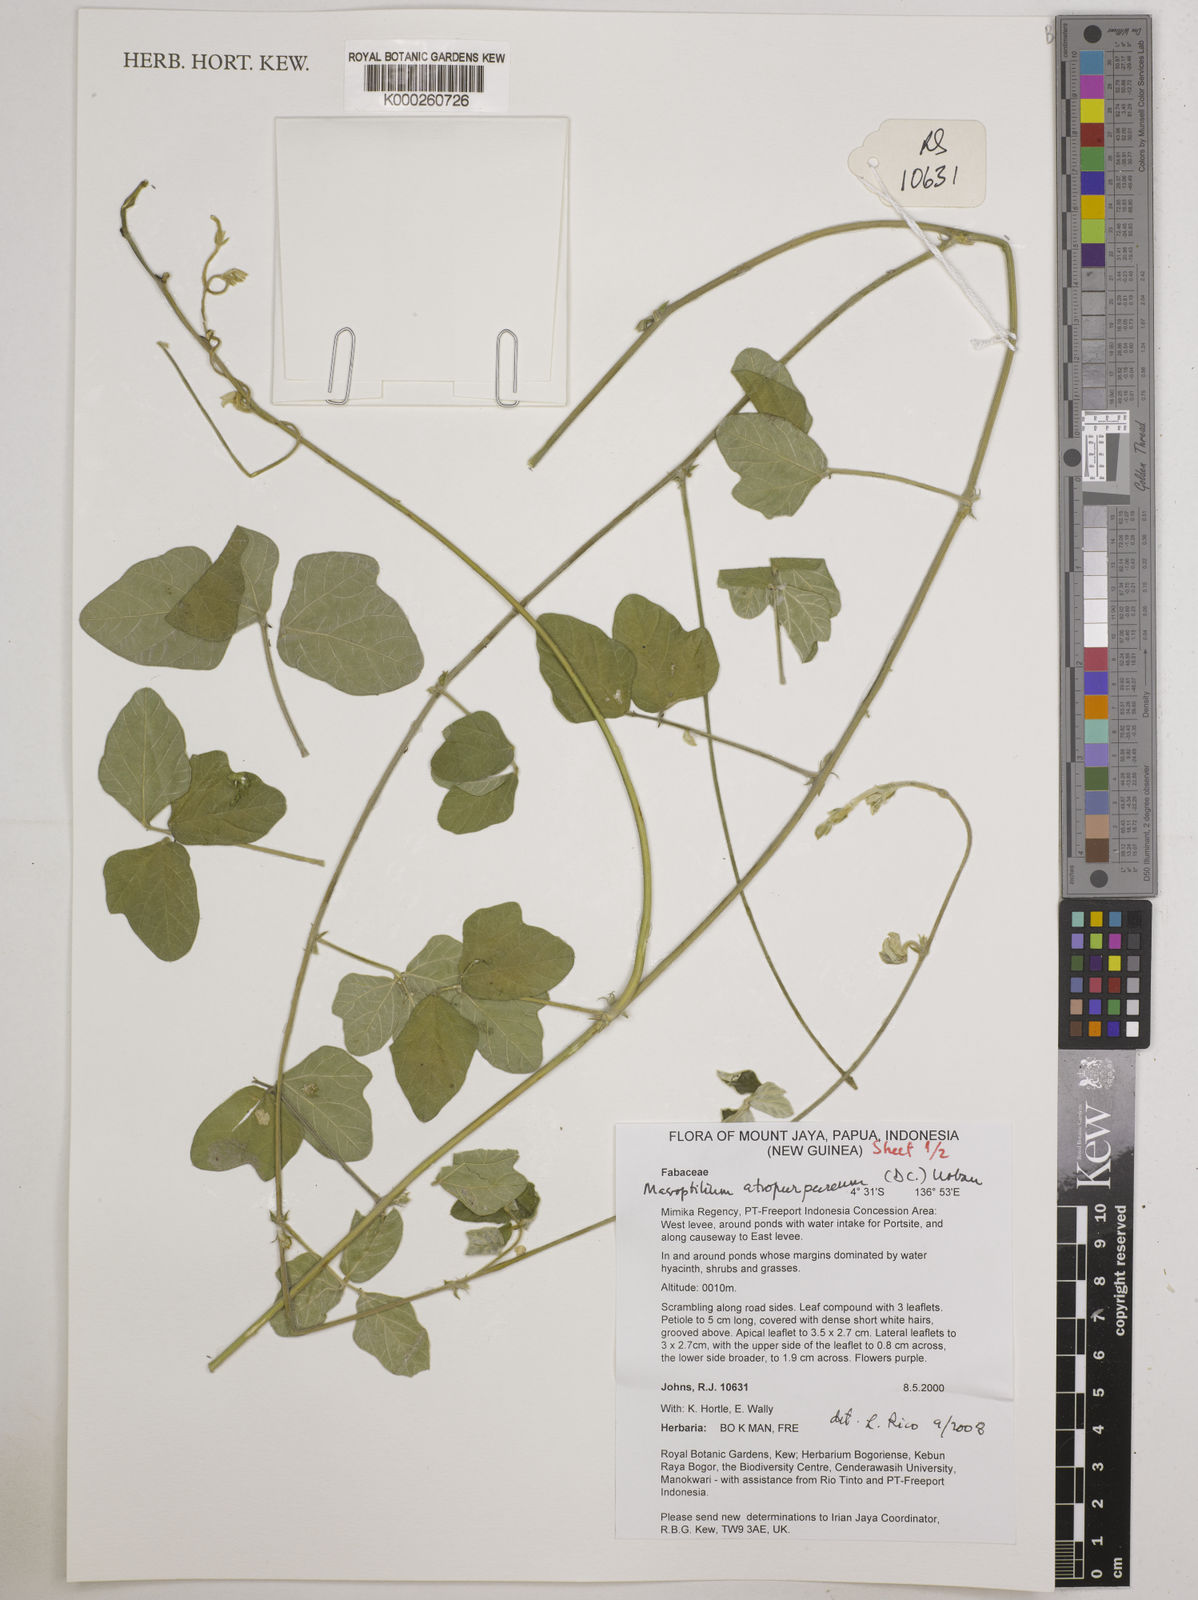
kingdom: Plantae
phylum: Tracheophyta
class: Magnoliopsida
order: Fabales
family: Fabaceae
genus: Macroptilium
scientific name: Macroptilium atropurpureum
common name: Purple bushbean
